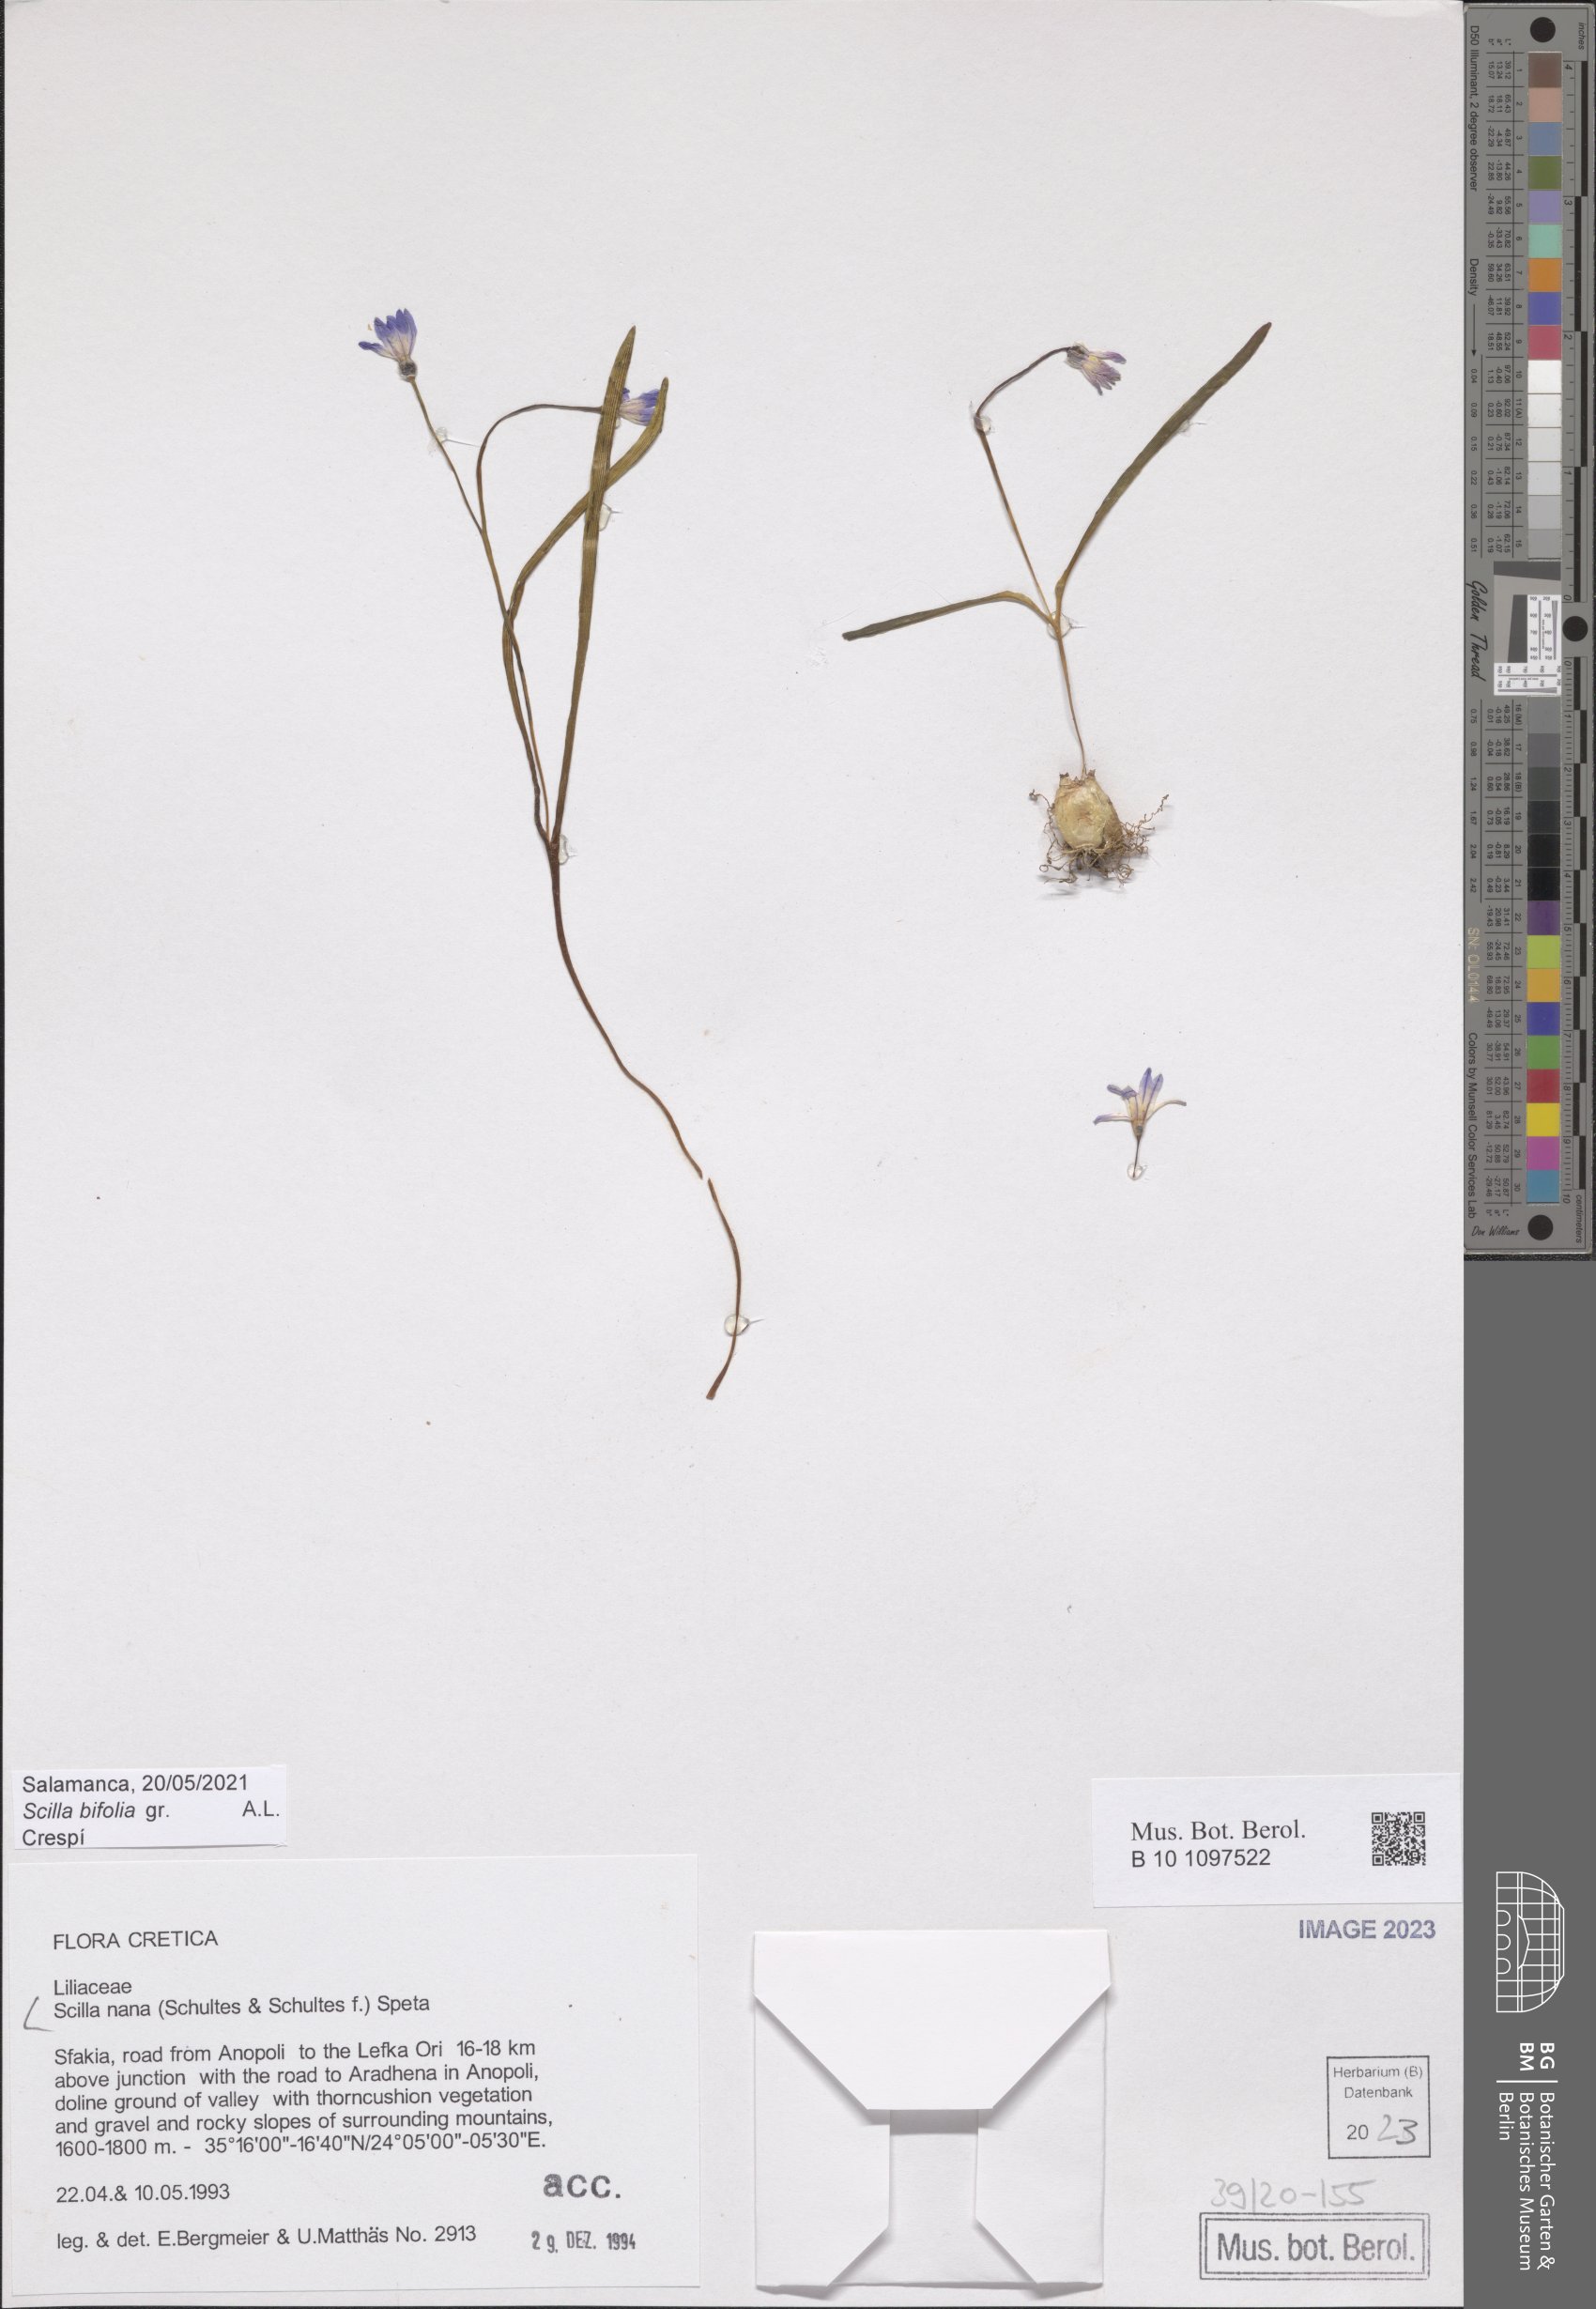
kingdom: Plantae
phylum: Tracheophyta
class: Liliopsida
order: Asparagales
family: Asparagaceae
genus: Scilla
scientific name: Scilla nana
